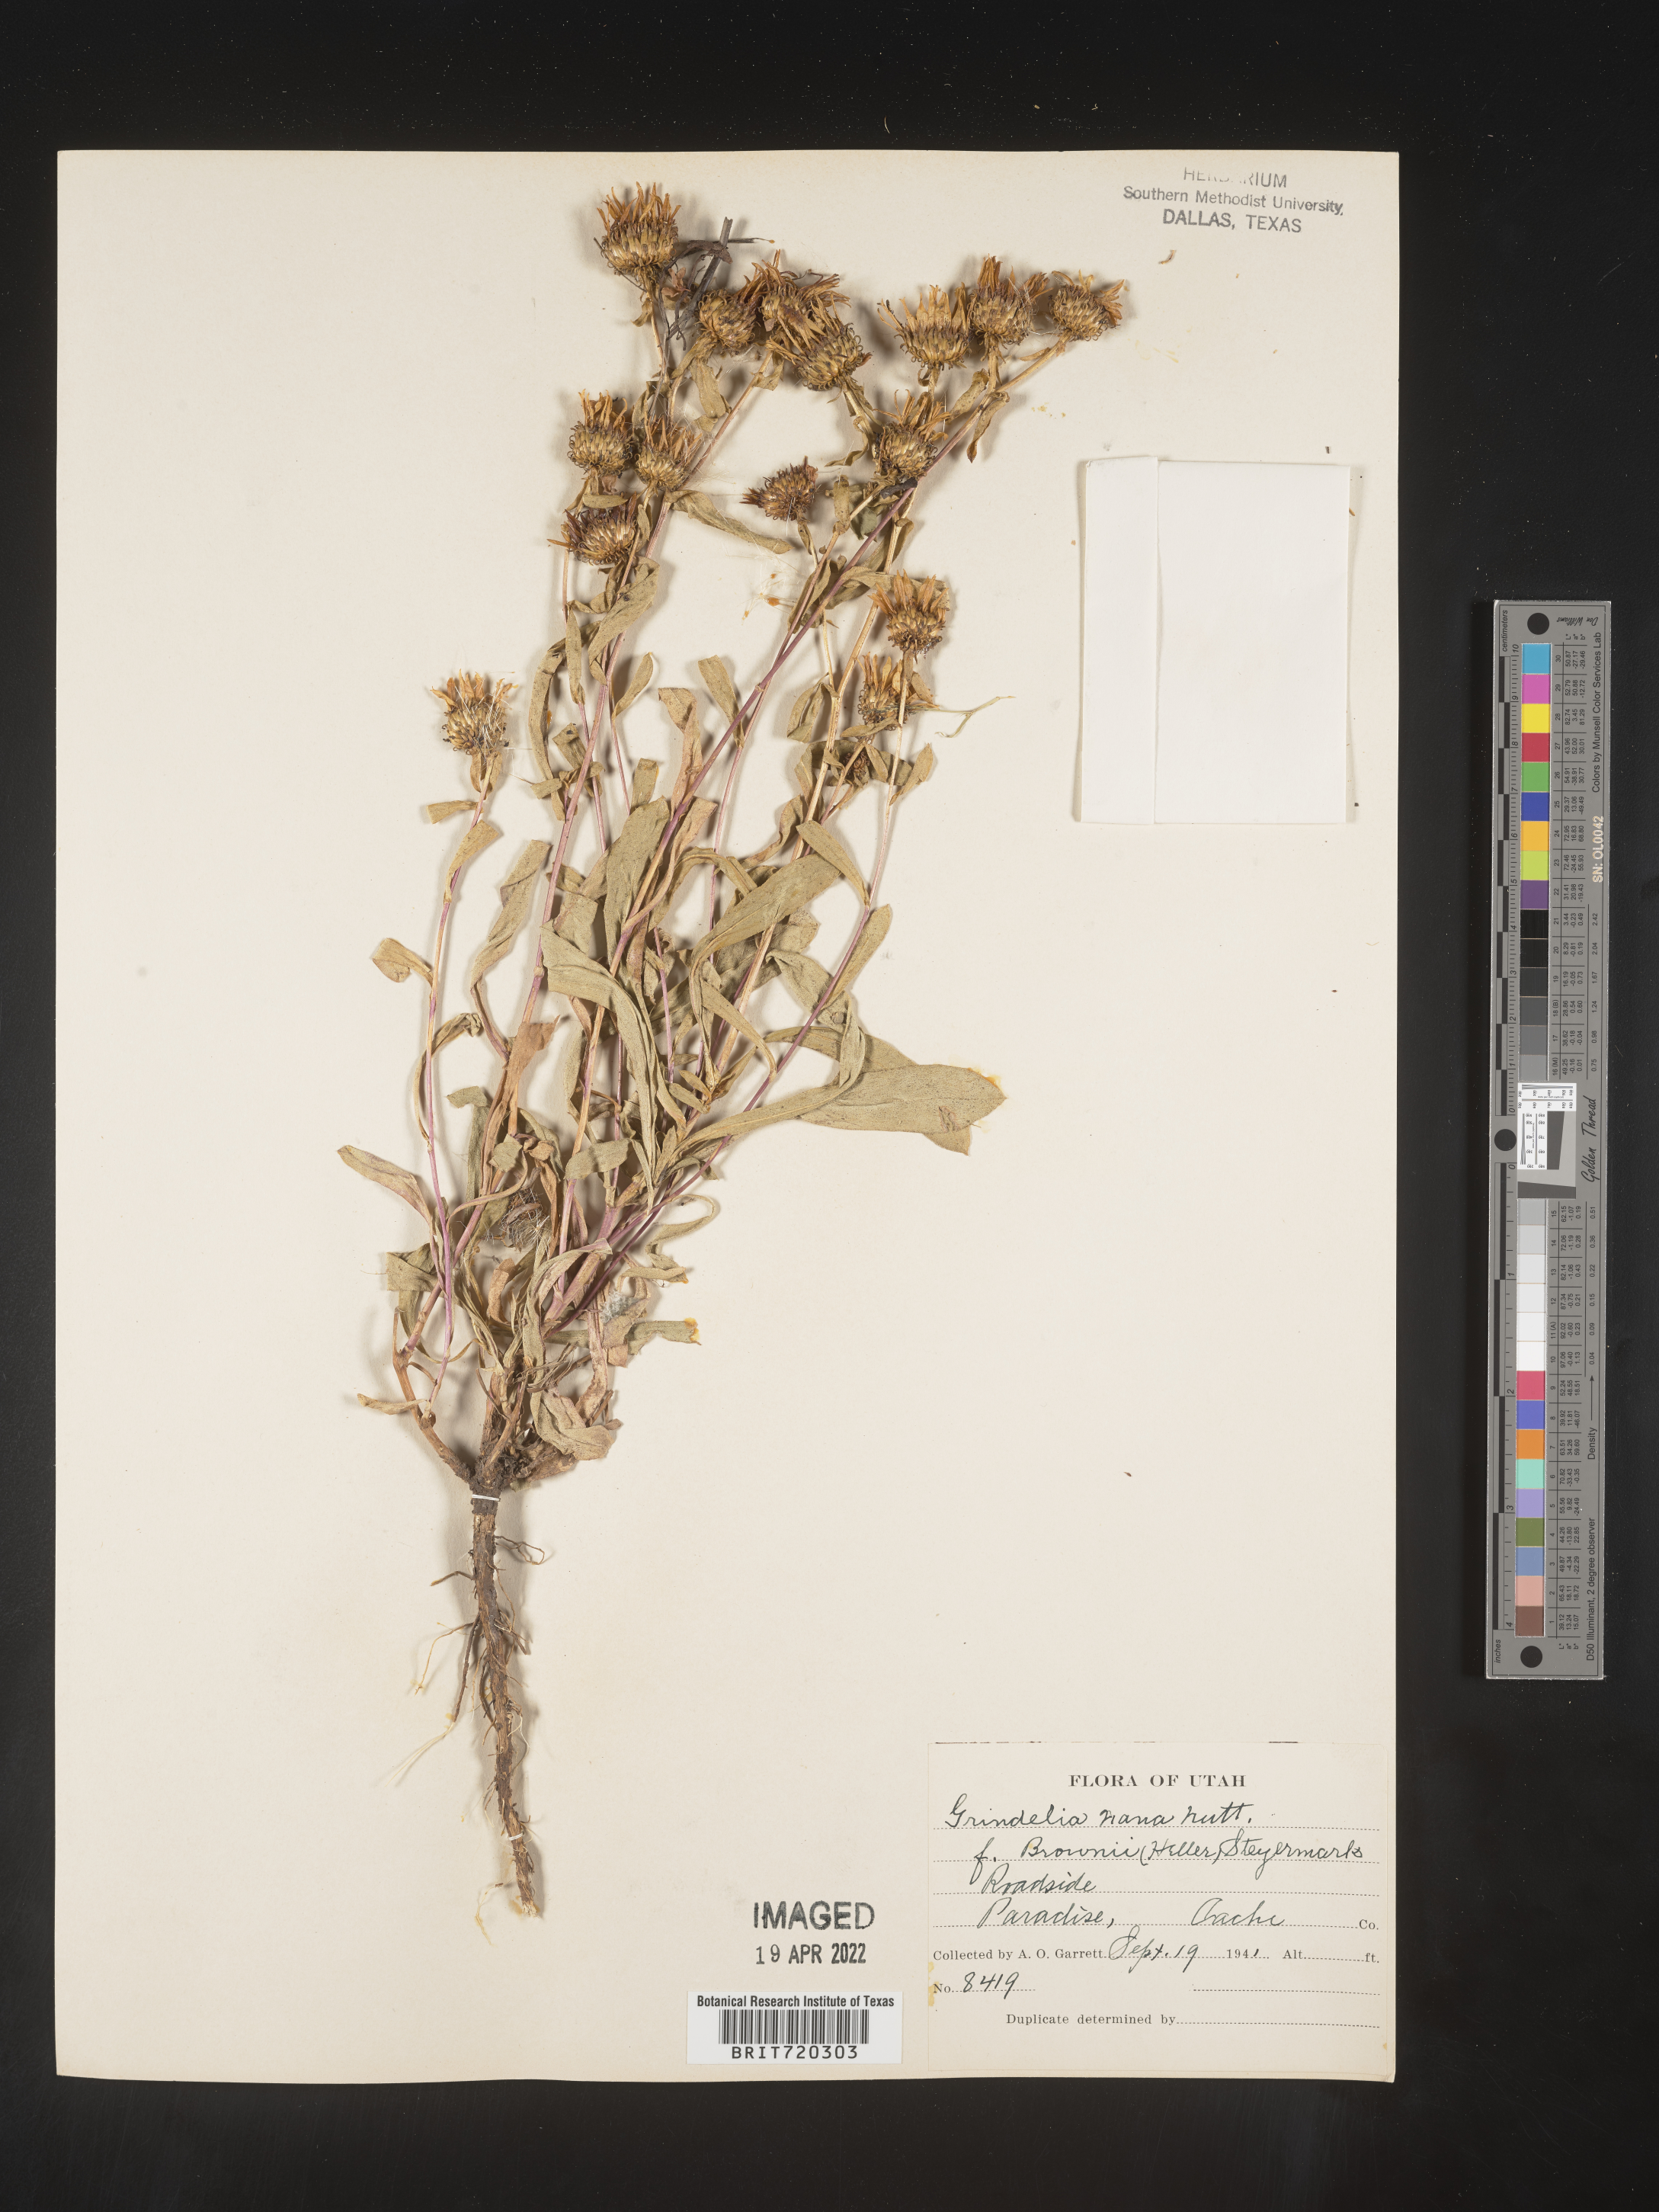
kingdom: Plantae
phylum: Tracheophyta
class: Magnoliopsida
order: Asterales
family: Asteraceae
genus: Grindelia
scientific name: Grindelia hirsutula
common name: Hairy gumweed
